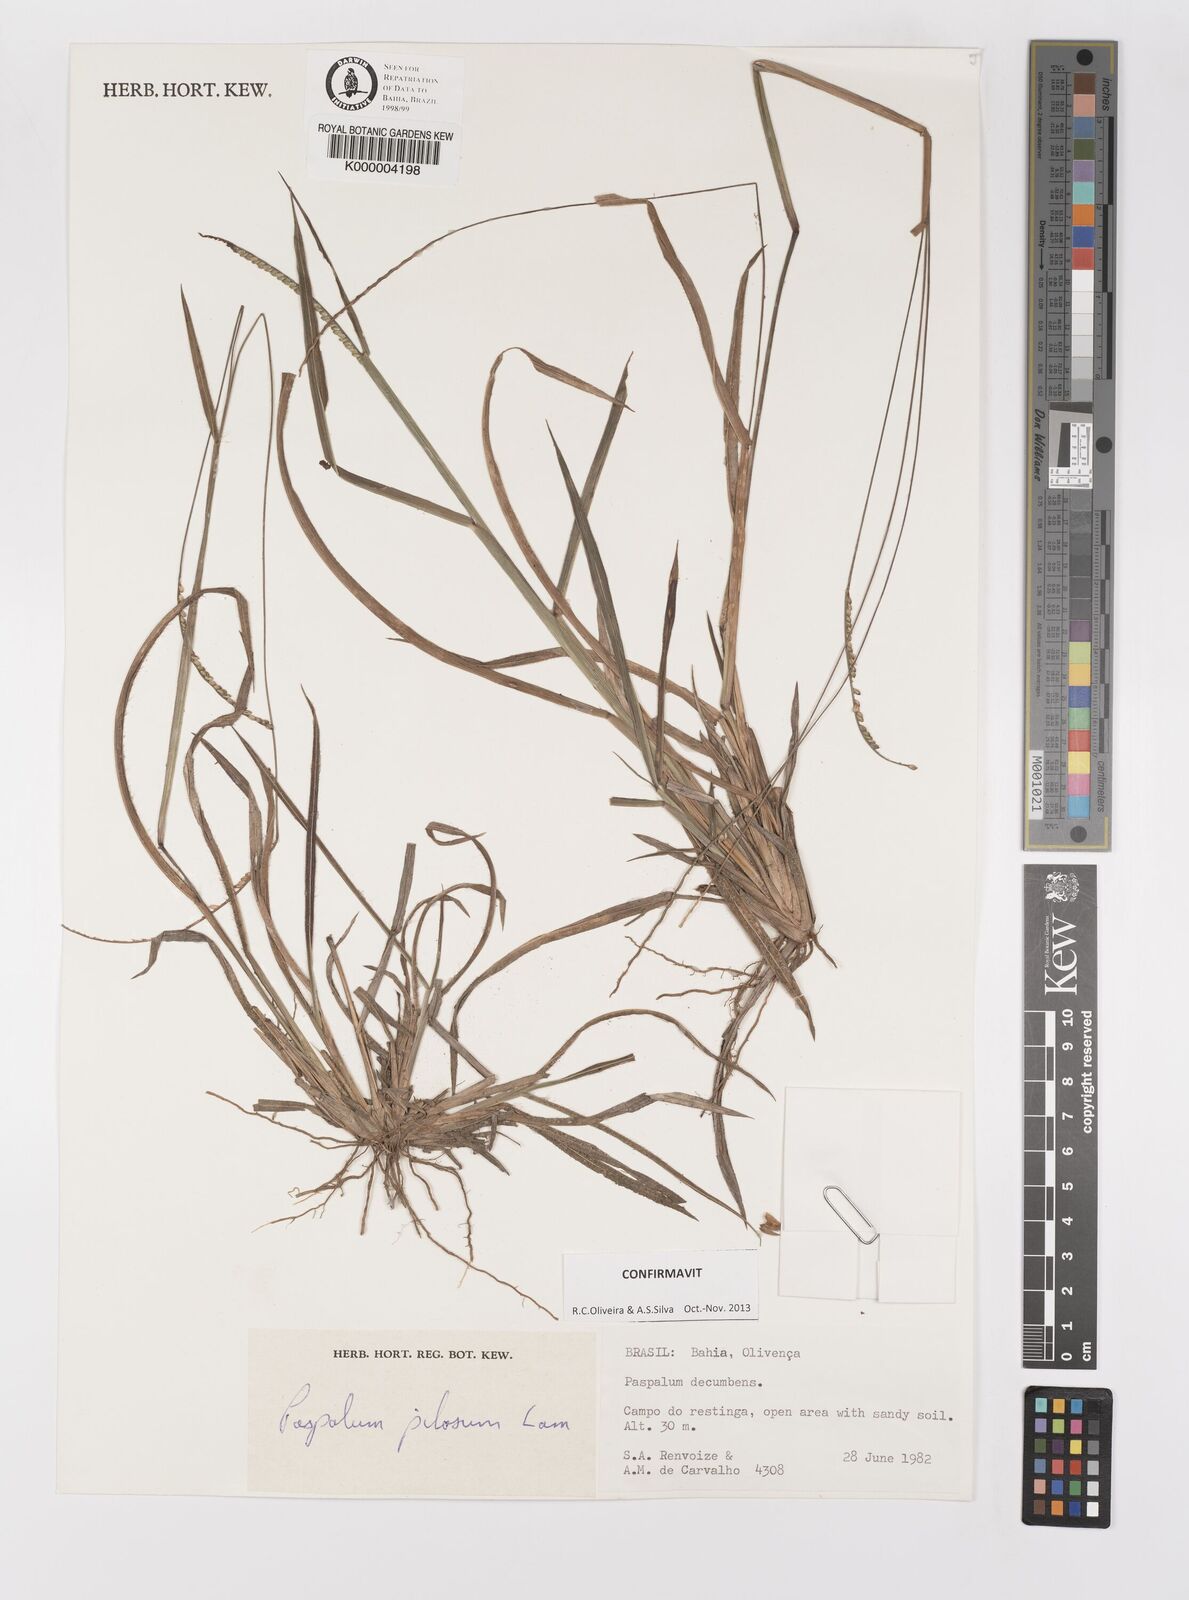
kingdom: Plantae
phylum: Tracheophyta
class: Liliopsida
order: Poales
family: Poaceae
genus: Paspalum
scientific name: Paspalum pilosum
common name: Crowngrass
